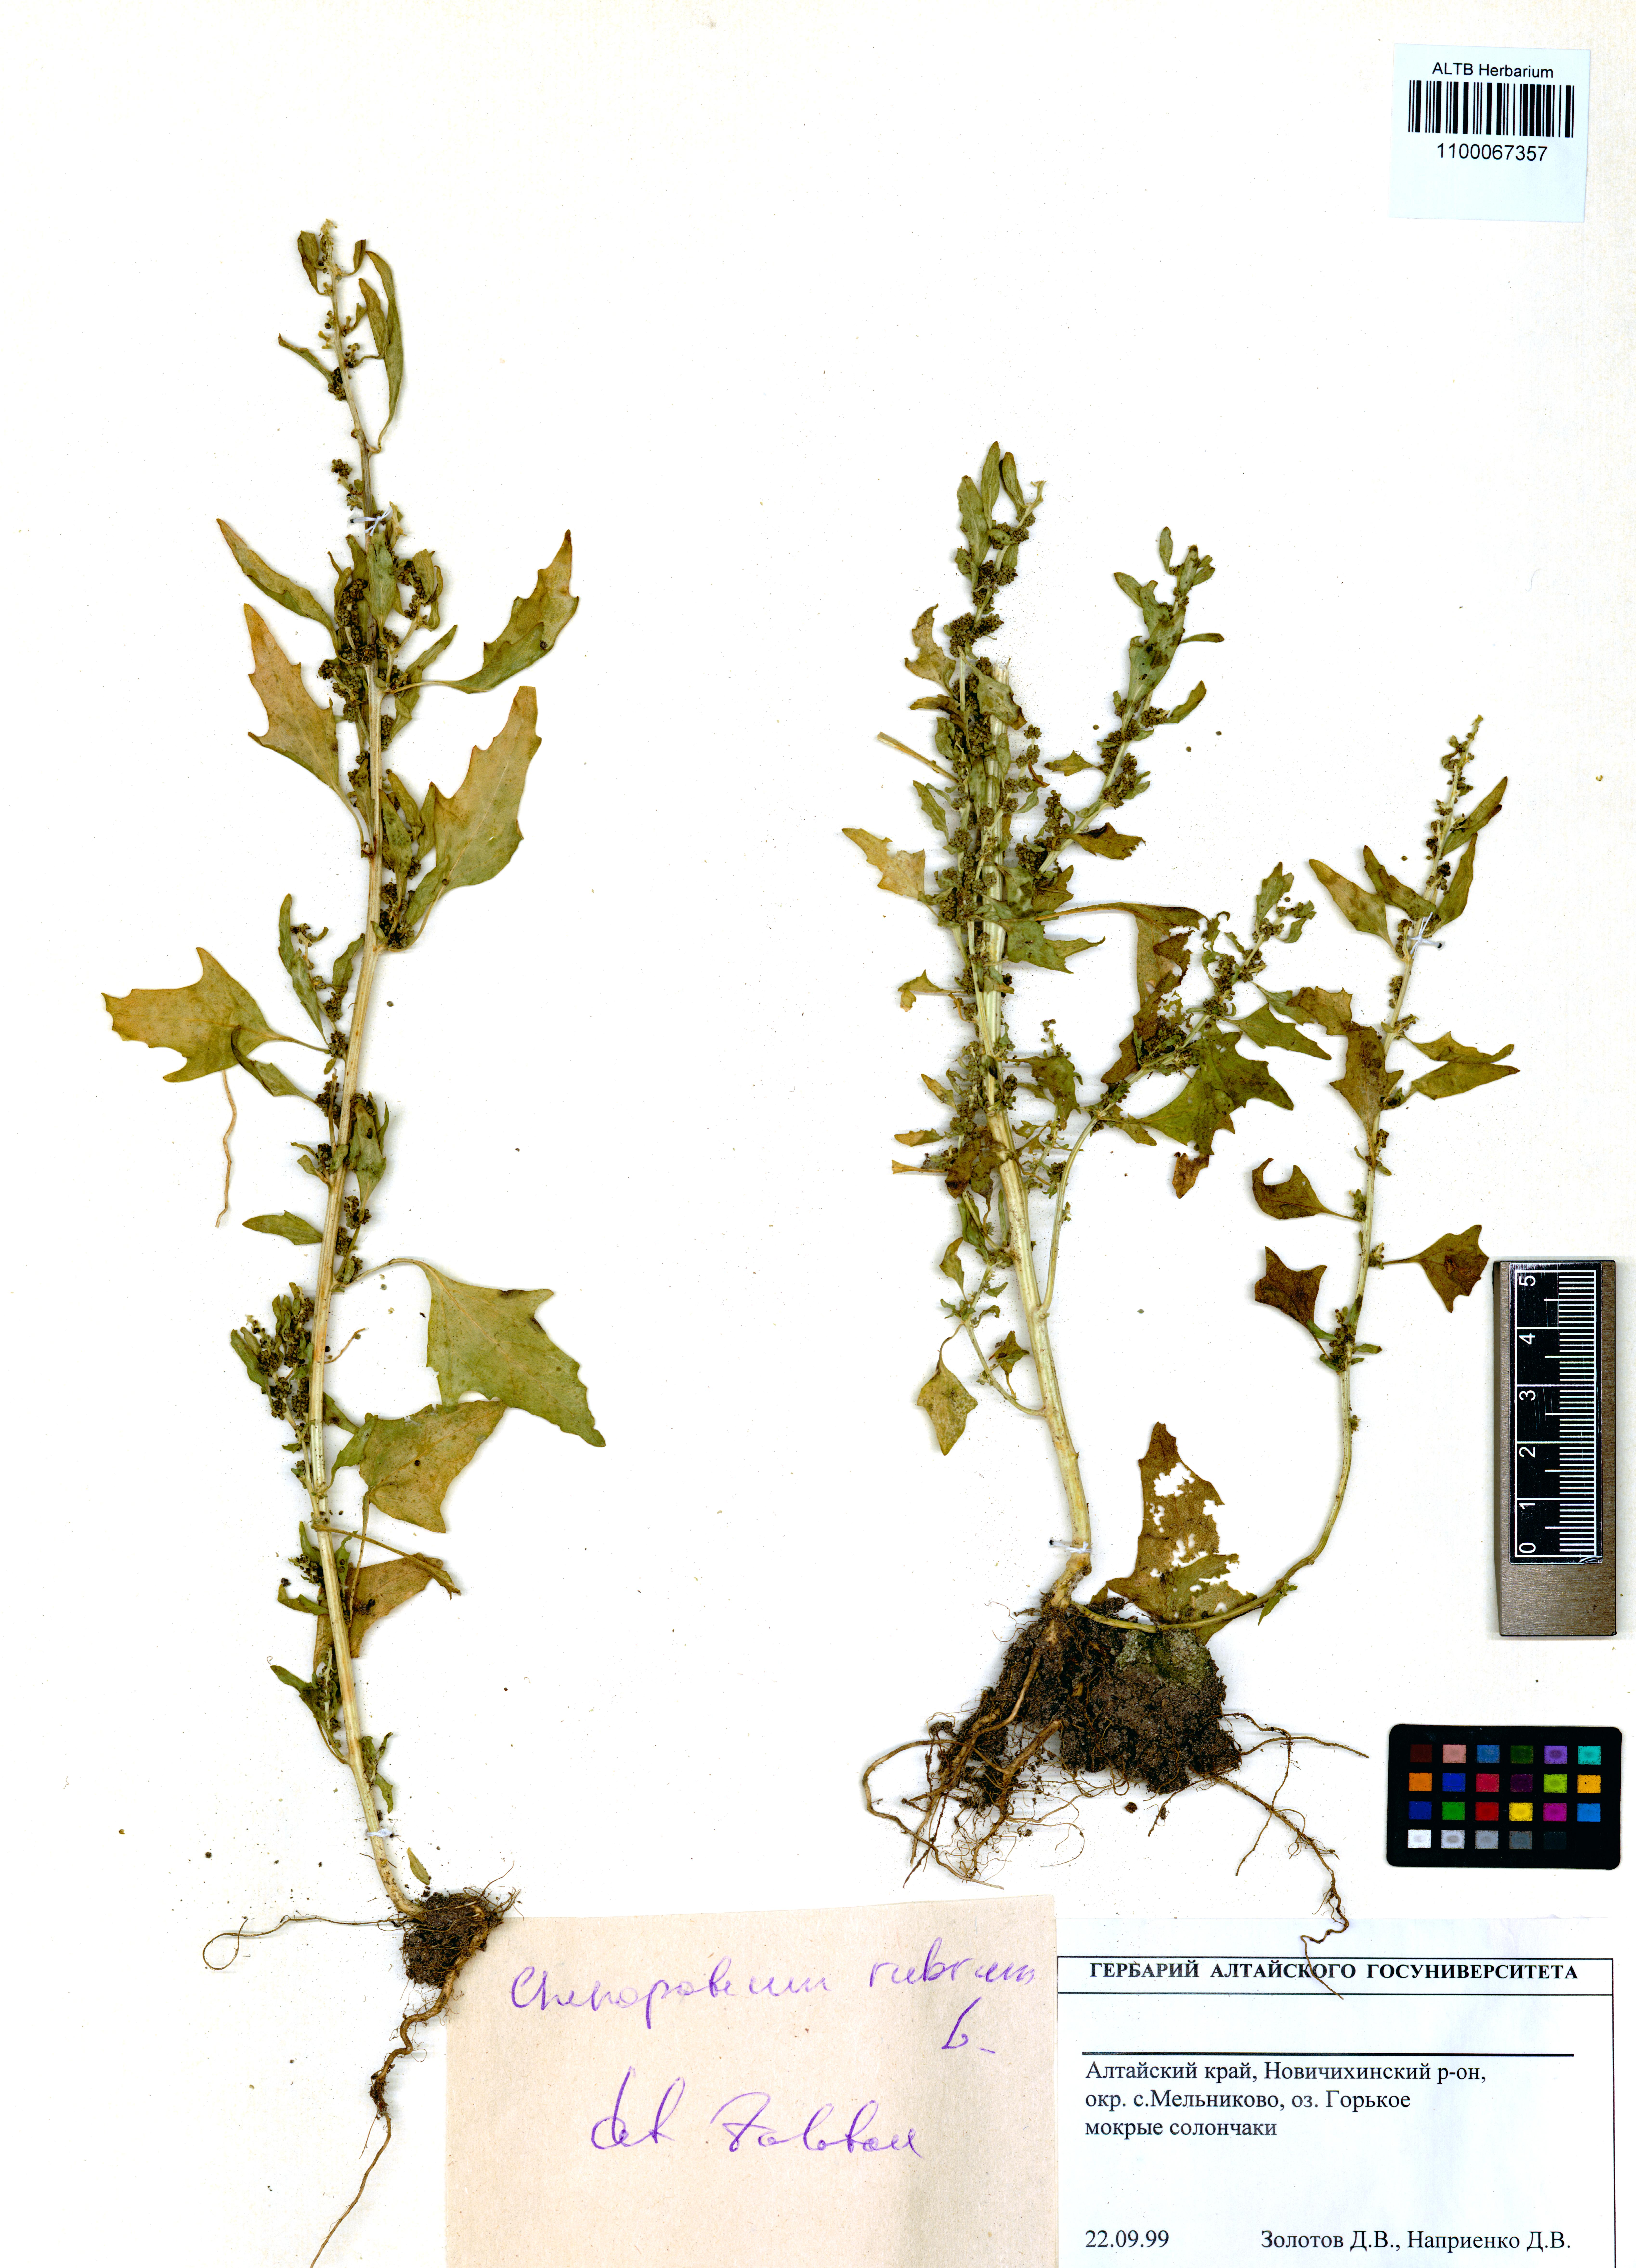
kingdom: Plantae
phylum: Tracheophyta
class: Magnoliopsida
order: Caryophyllales
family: Amaranthaceae
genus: Oxybasis
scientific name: Oxybasis rubra
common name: Red goosefoot
